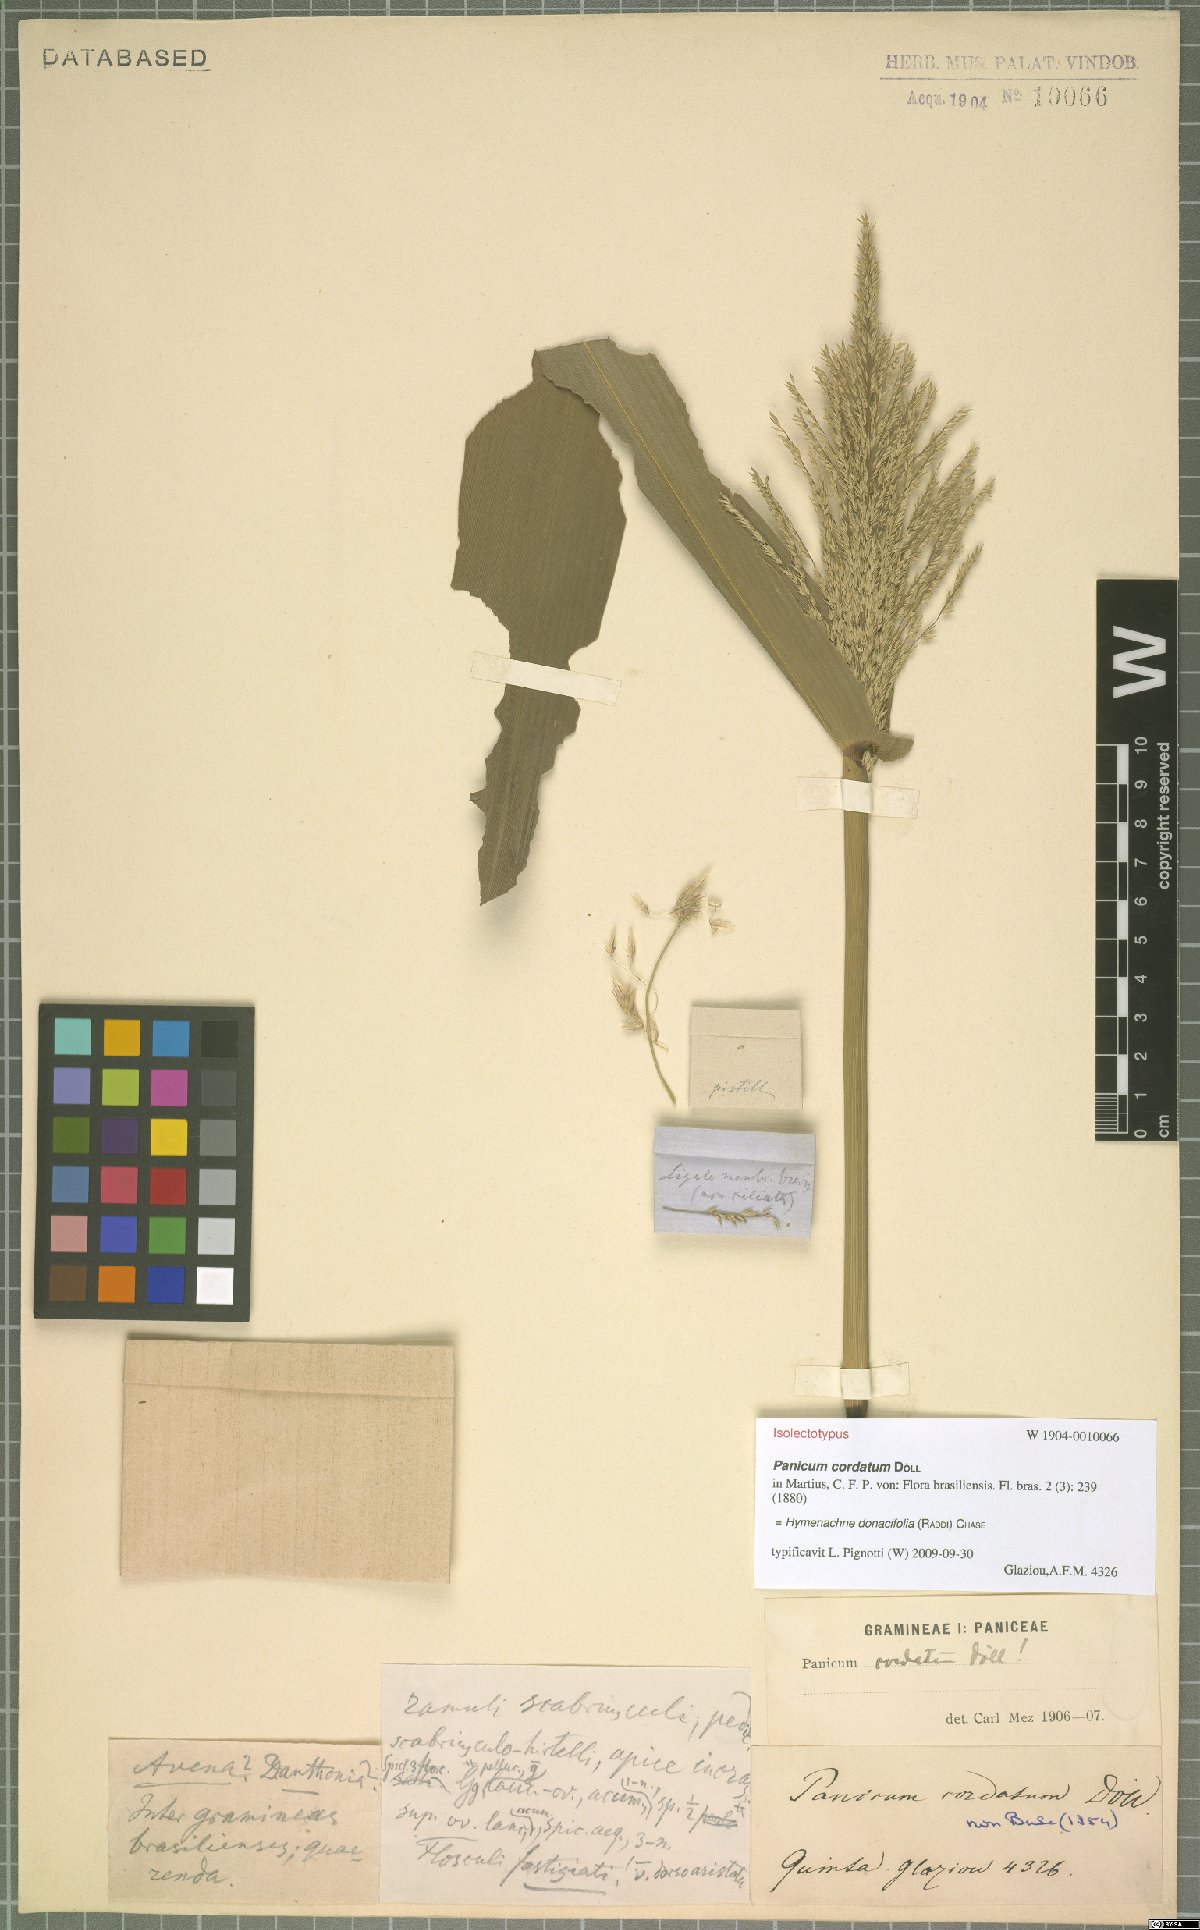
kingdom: Plantae
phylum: Tracheophyta
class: Liliopsida
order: Poales
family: Poaceae
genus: Hymenachne
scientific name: Hymenachne donacifolia
